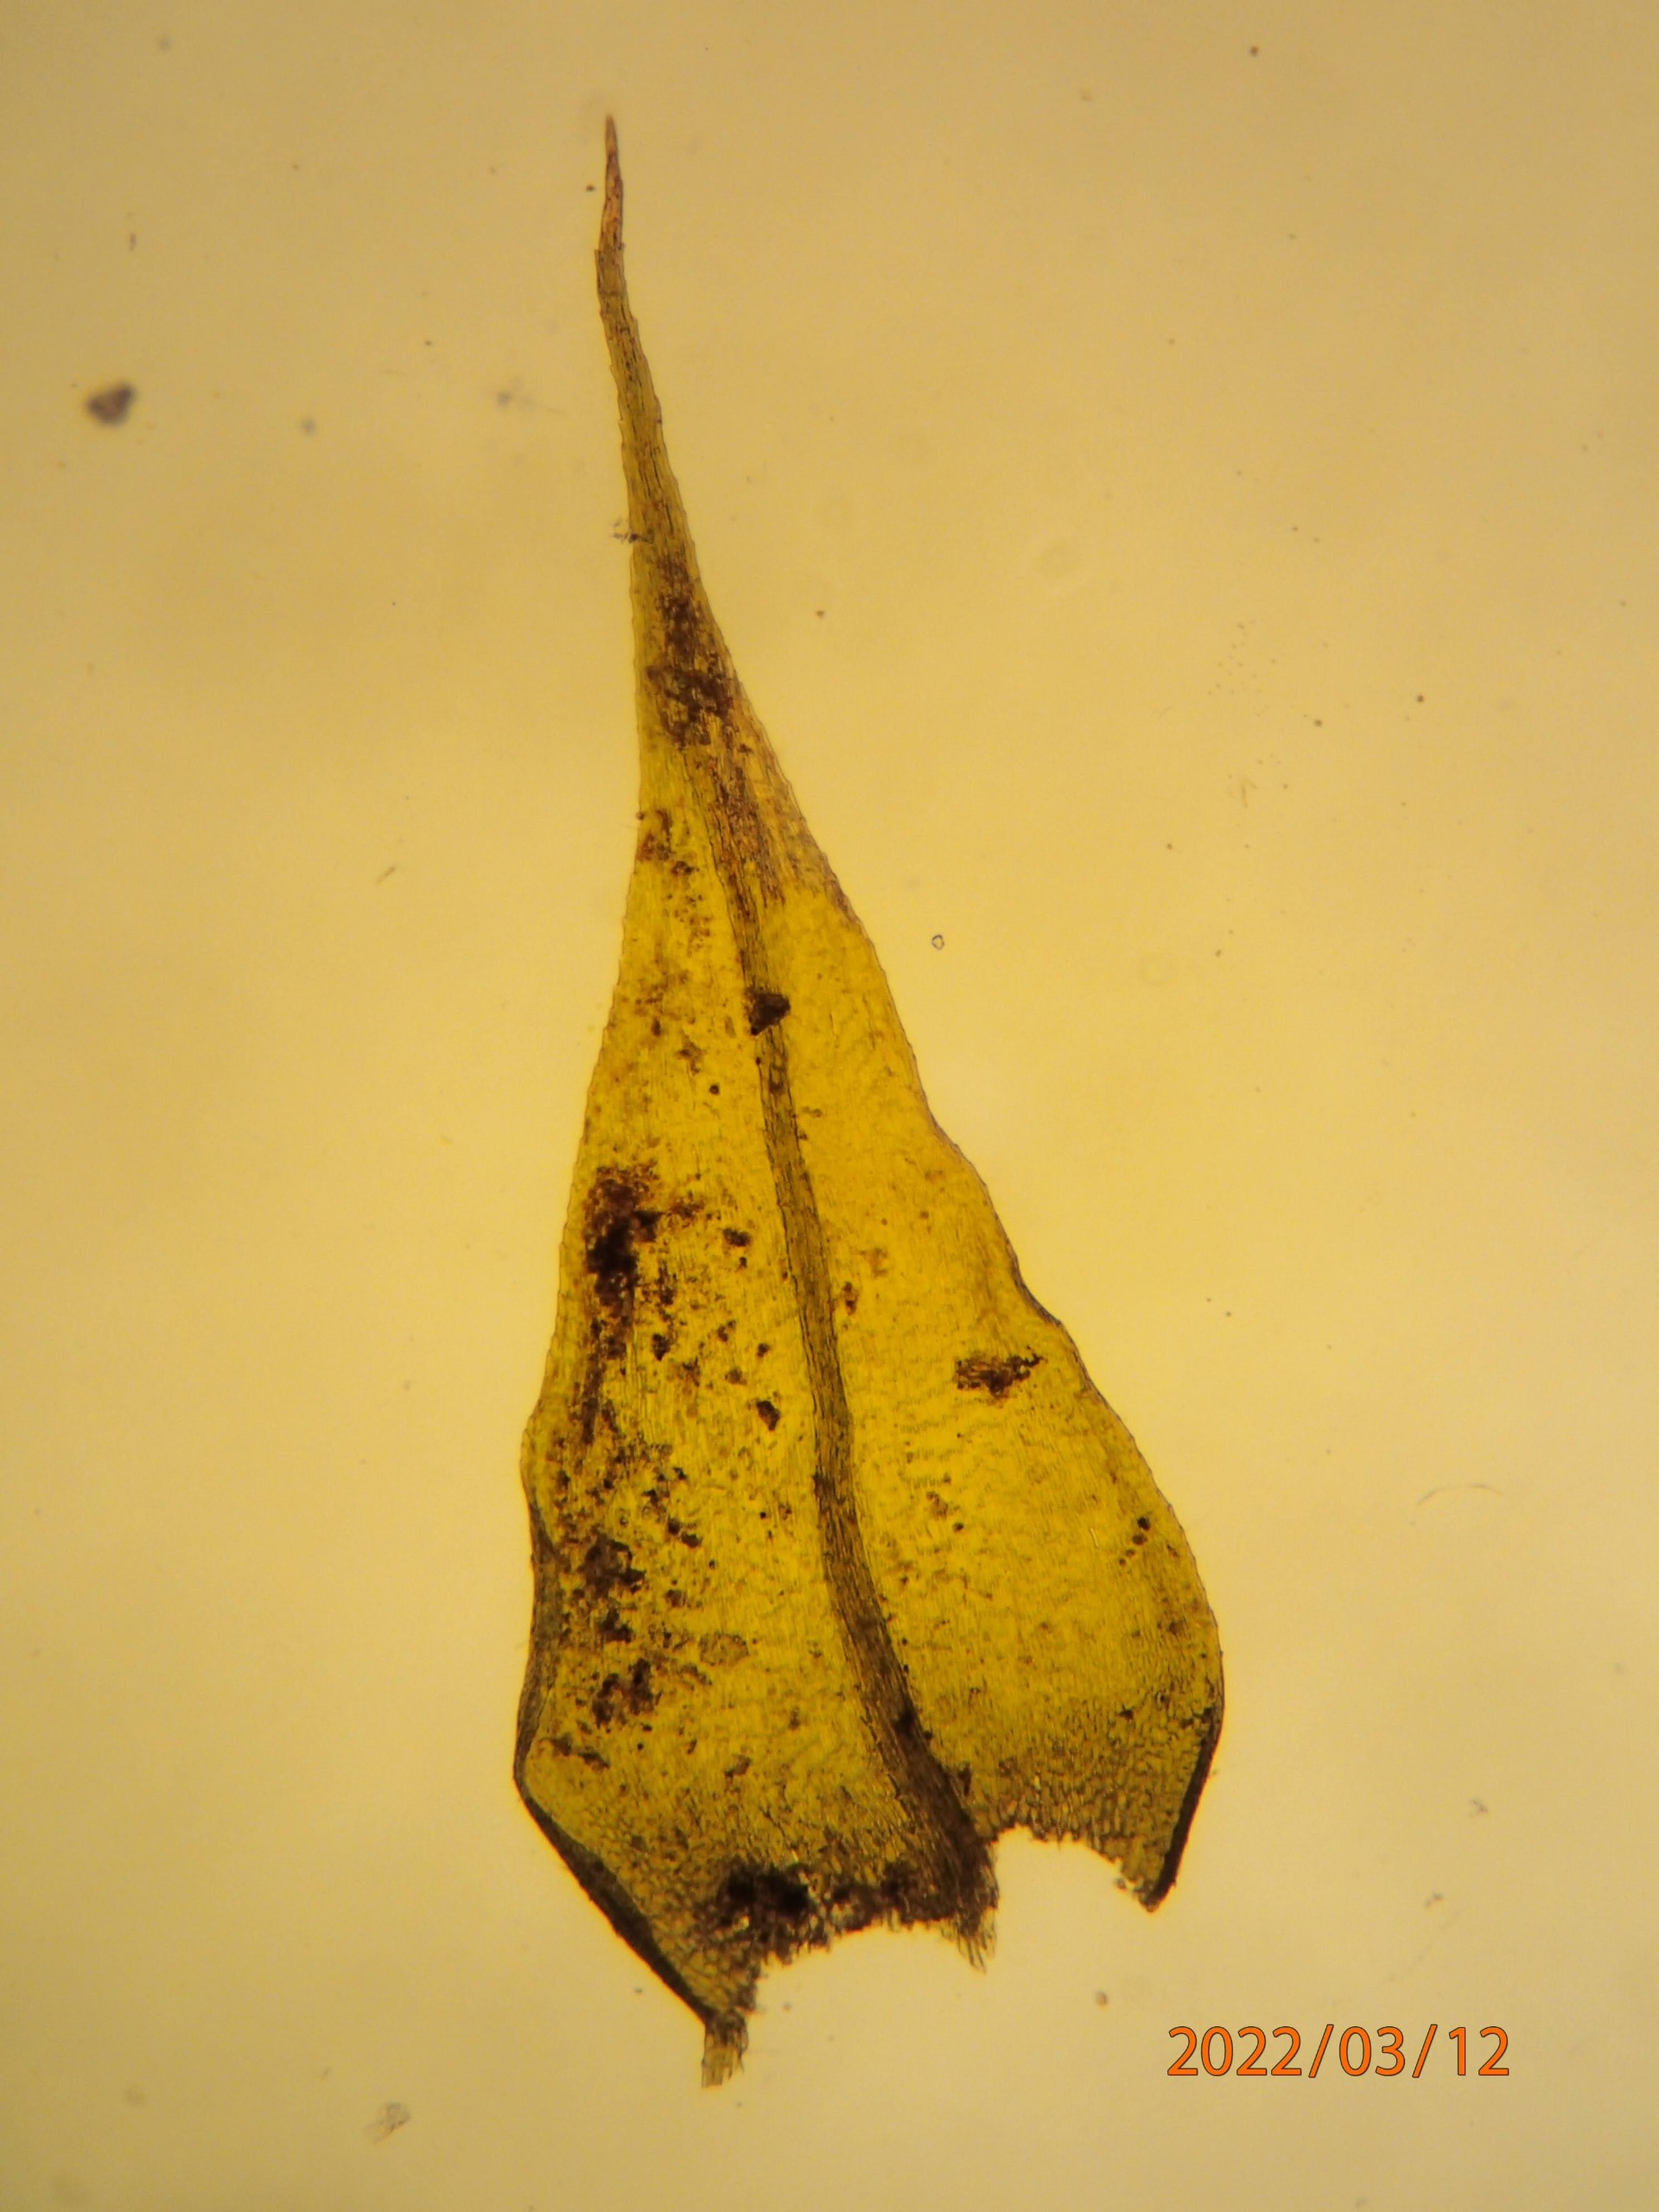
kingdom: Plantae
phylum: Bryophyta
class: Bryopsida
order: Hypnales
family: Brachytheciaceae
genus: Sciuro-hypnum
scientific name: Sciuro-hypnum populeum
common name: Park-kortkapsel
